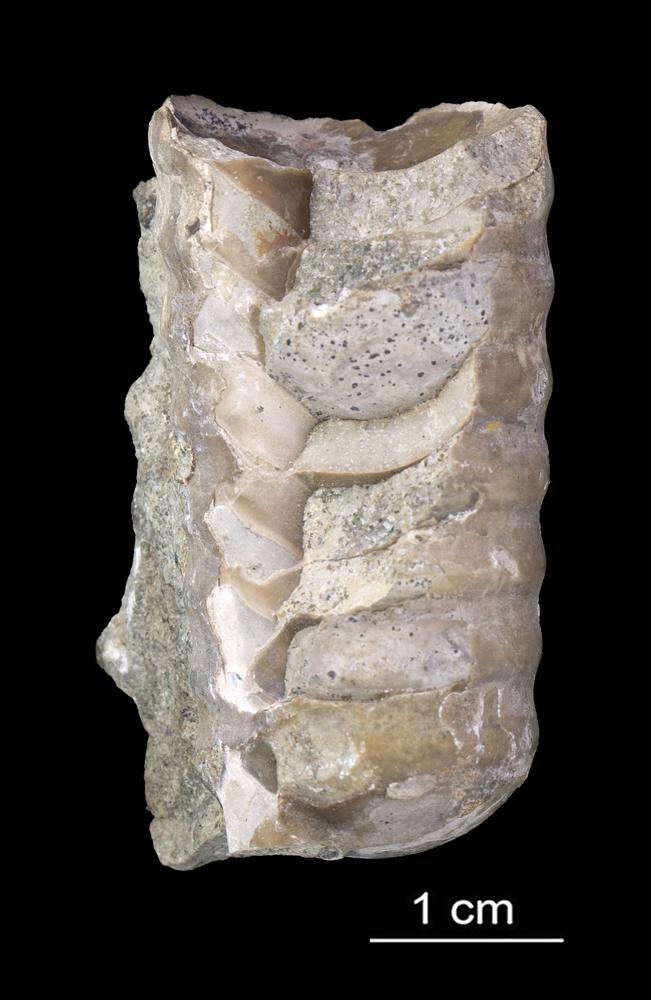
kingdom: Animalia
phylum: Mollusca
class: Cephalopoda
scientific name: Cephalopoda
